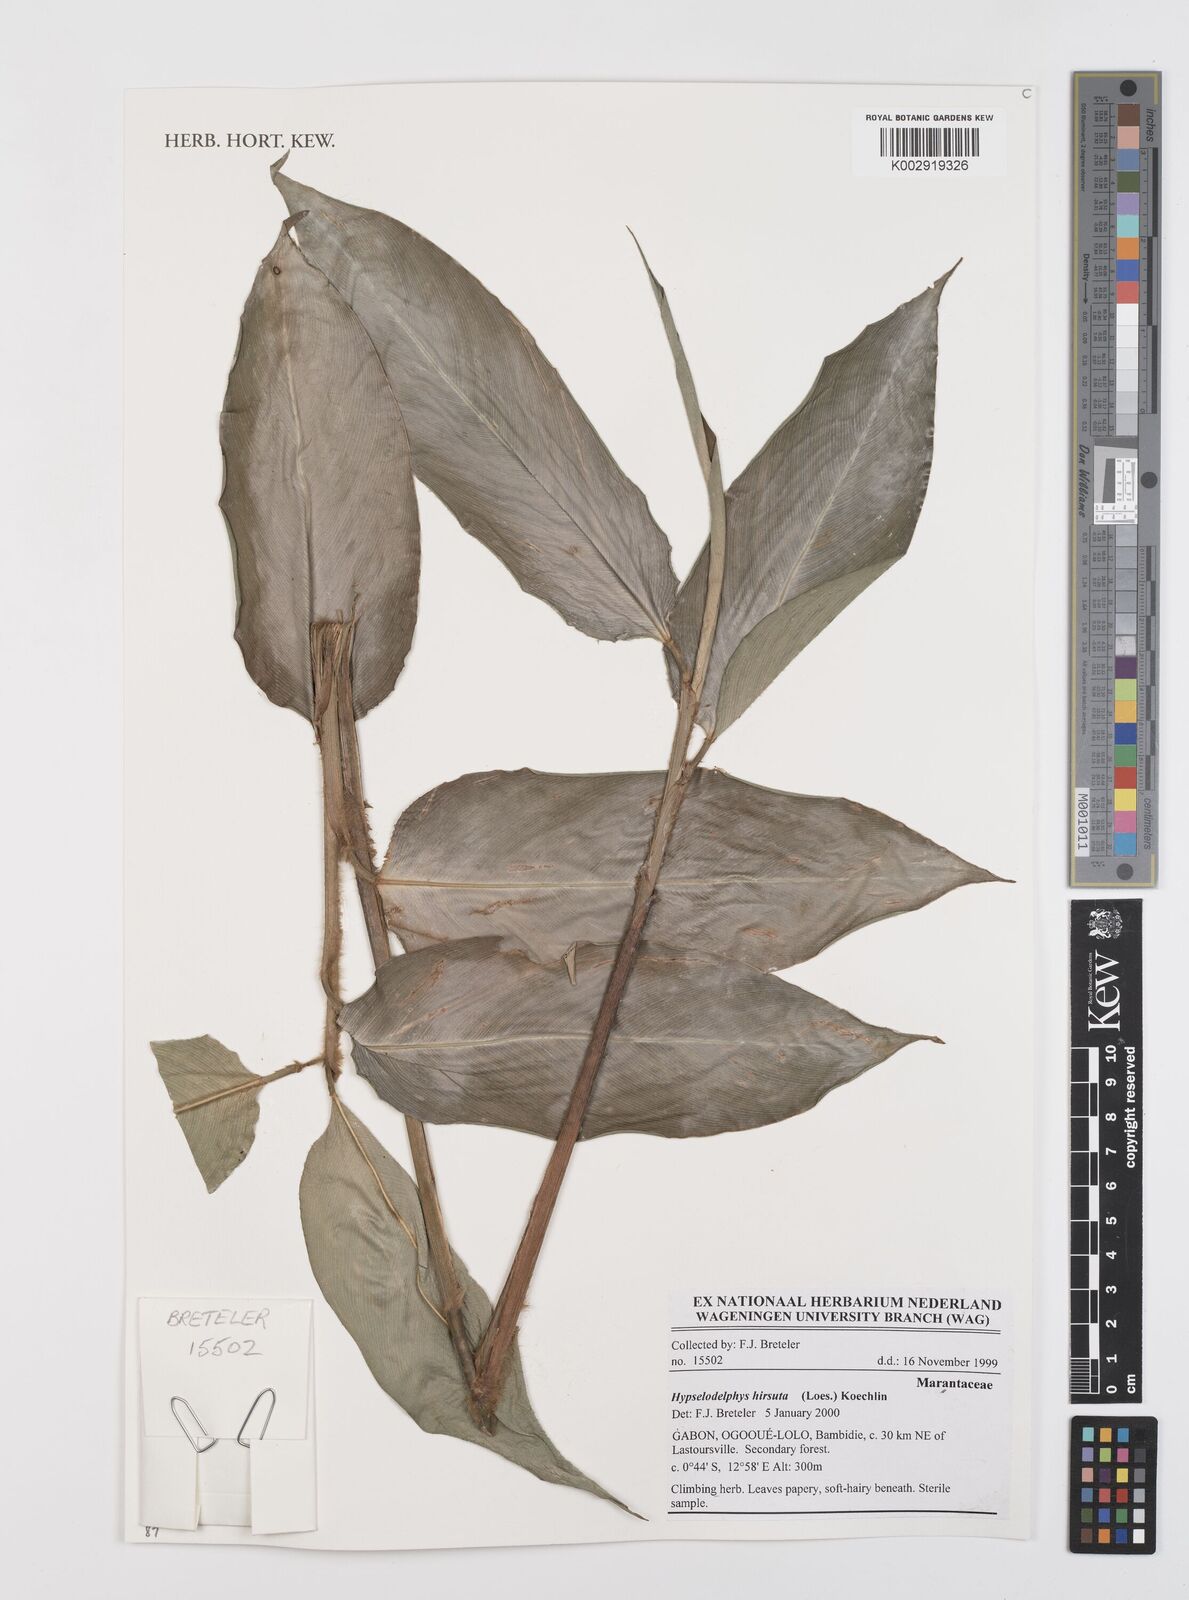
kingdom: Plantae
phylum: Tracheophyta
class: Liliopsida
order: Zingiberales
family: Marantaceae
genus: Hypselodelphys
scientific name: Hypselodelphys hirsuta
